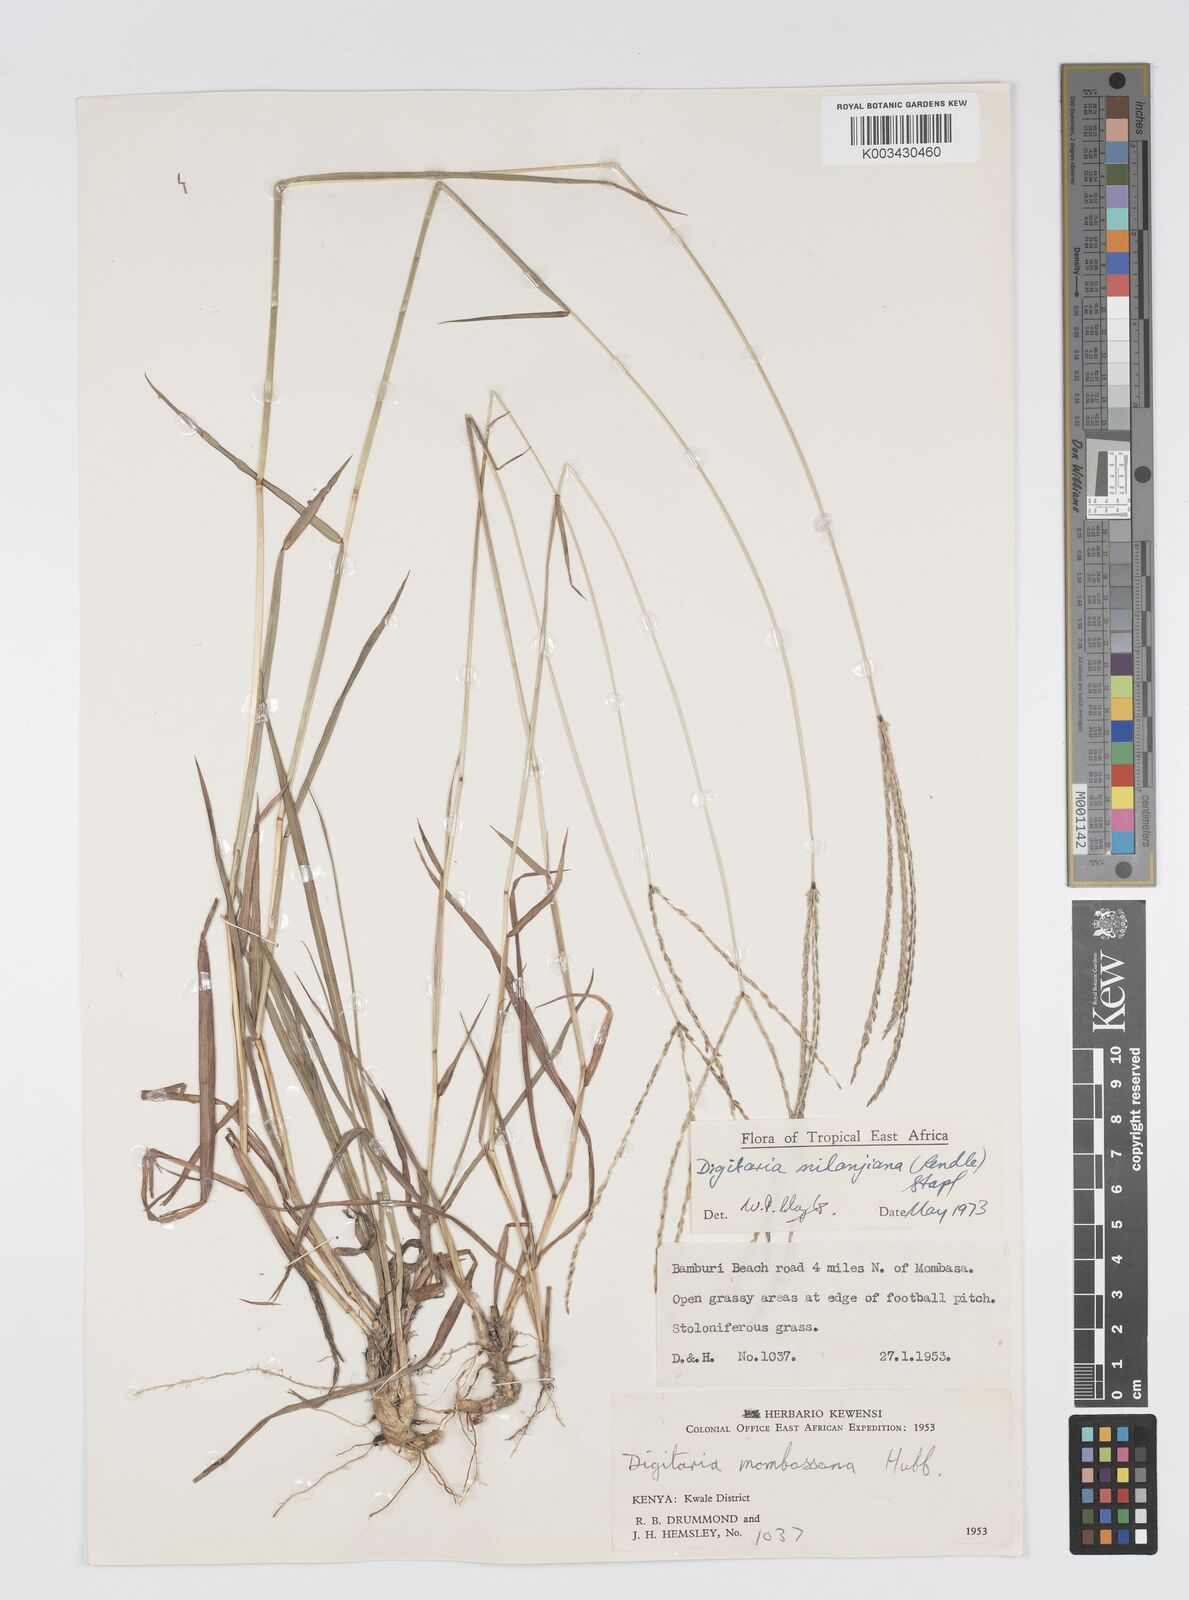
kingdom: Plantae
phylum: Tracheophyta
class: Liliopsida
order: Poales
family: Poaceae
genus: Digitaria
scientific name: Digitaria milanjiana
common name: Madagascar crabgrass
